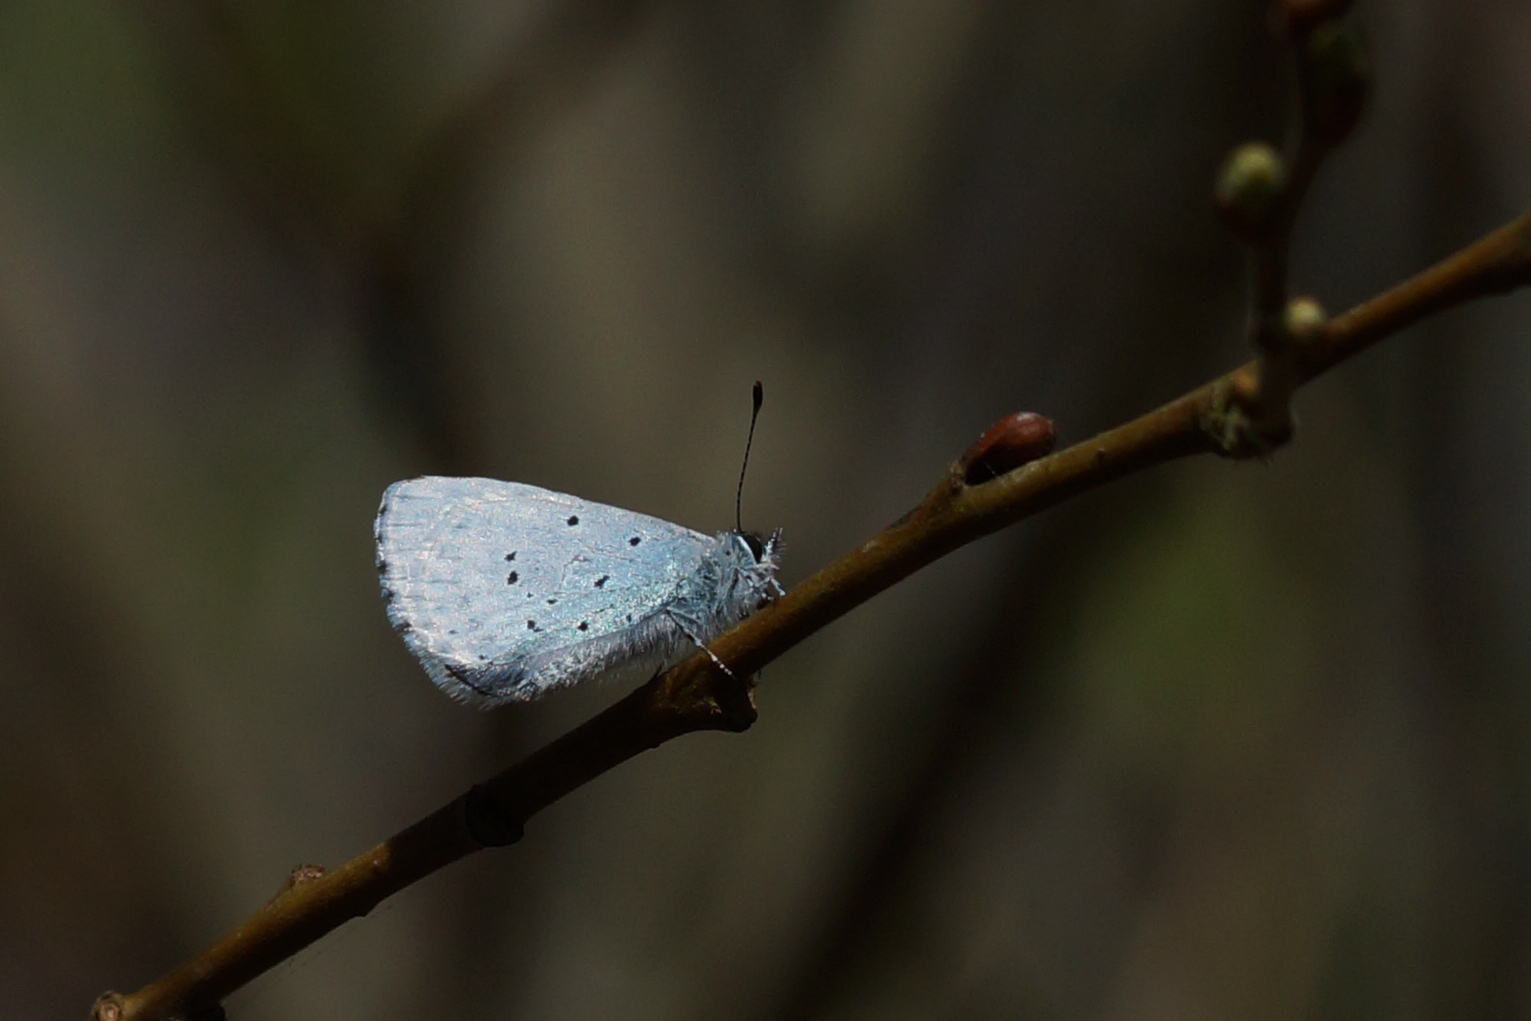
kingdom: Animalia
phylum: Arthropoda
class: Insecta
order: Lepidoptera
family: Lycaenidae
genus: Celastrina
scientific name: Celastrina argiolus
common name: Skovblåfugl
